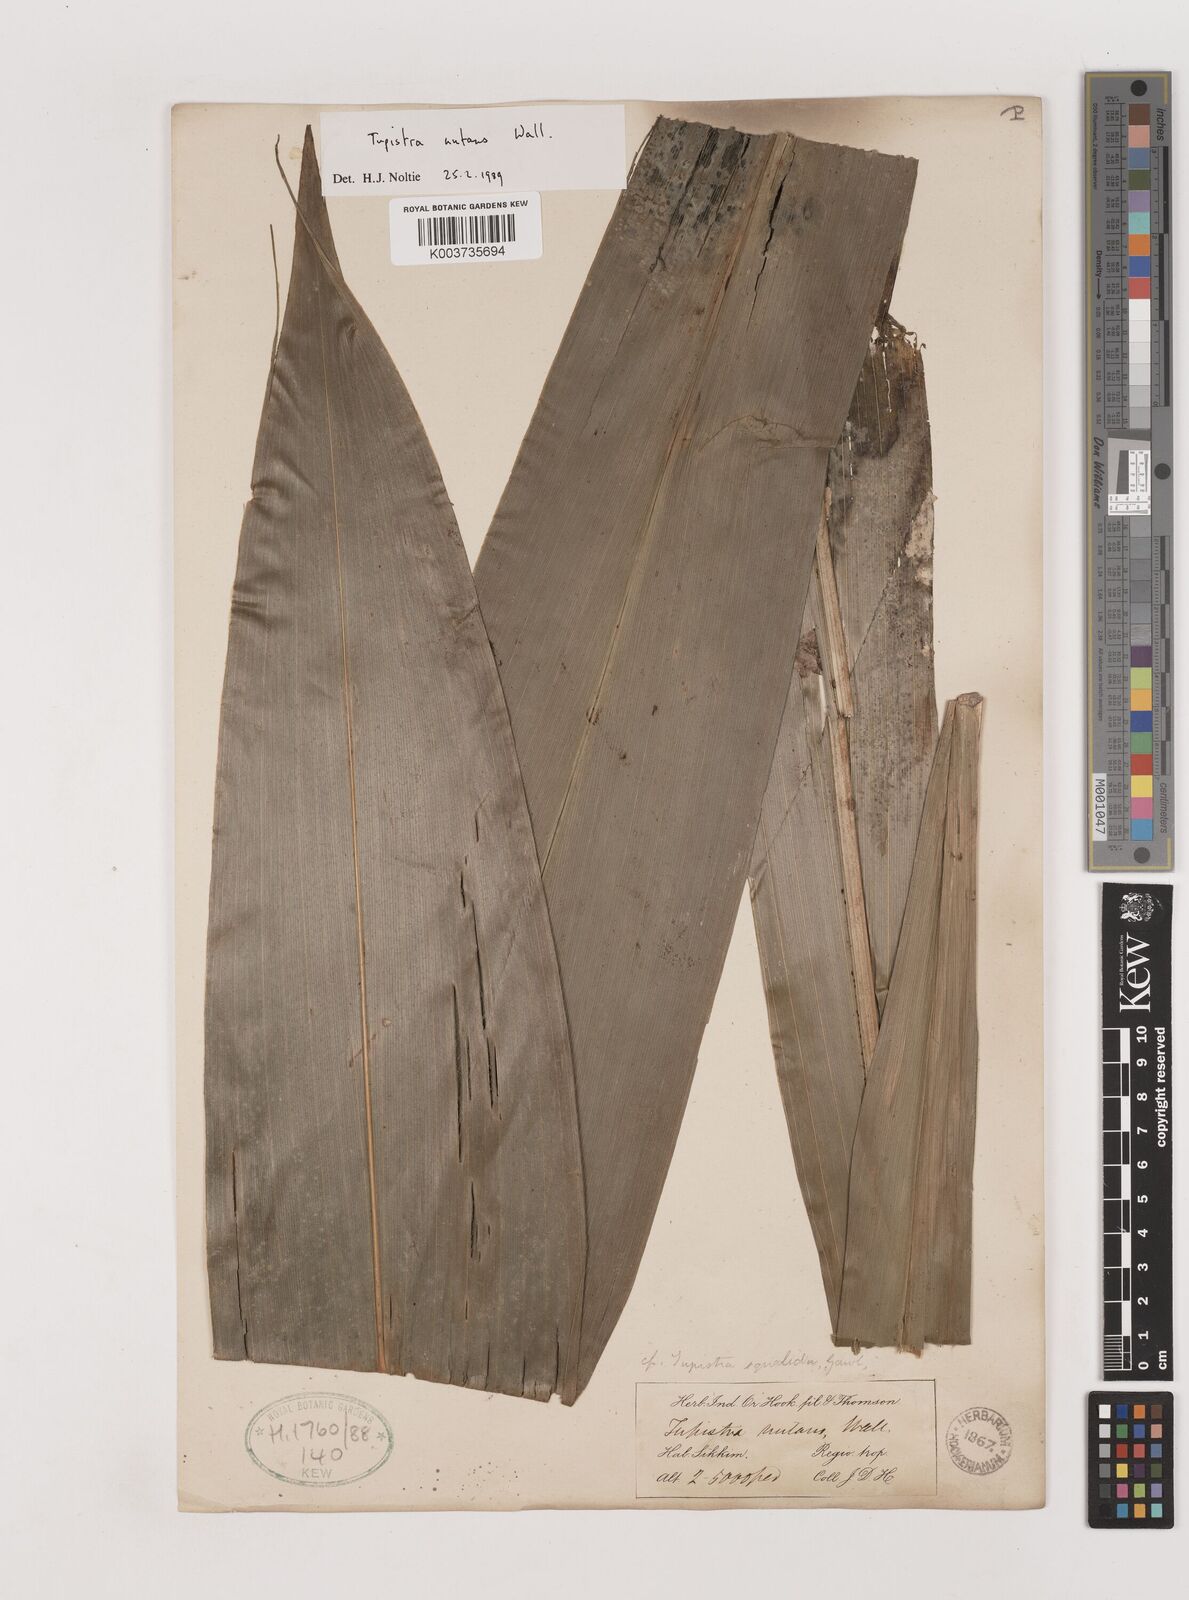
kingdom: Plantae
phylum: Tracheophyta
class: Liliopsida
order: Asparagales
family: Asparagaceae
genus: Tupistra
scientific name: Tupistra nutans
